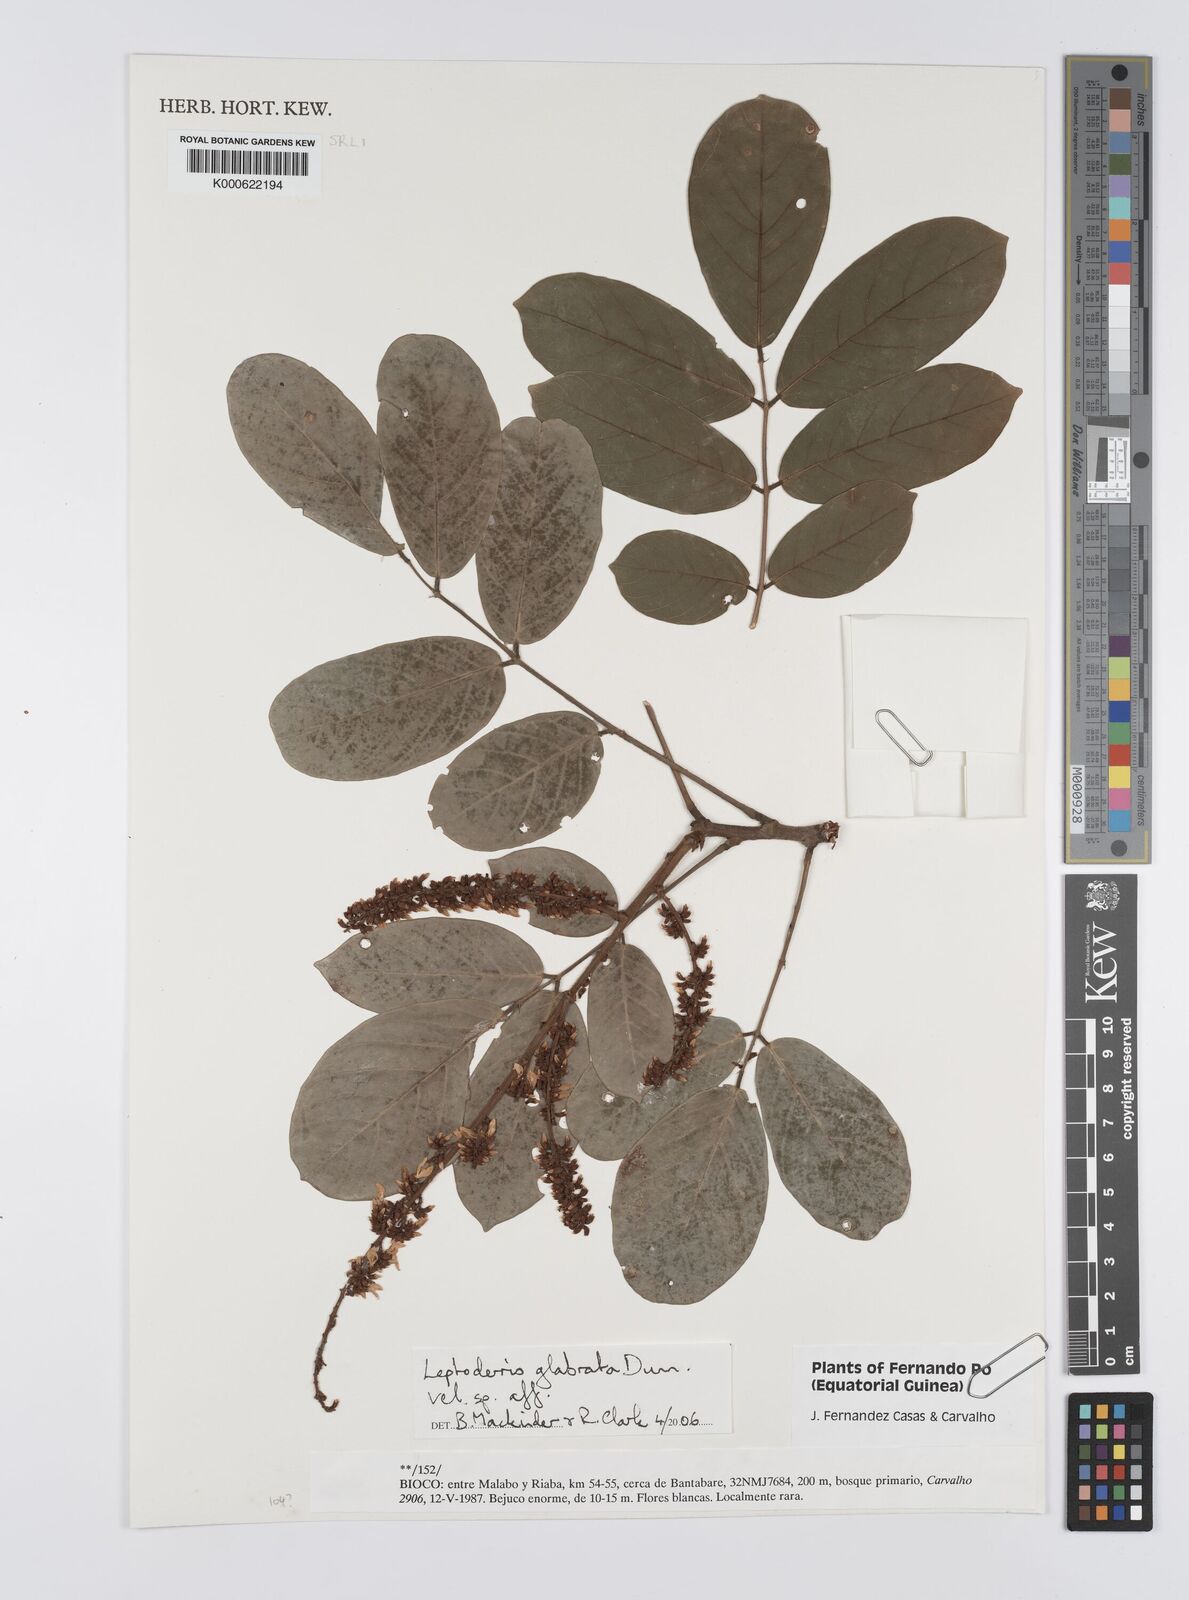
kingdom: Plantae
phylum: Tracheophyta
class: Magnoliopsida
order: Fabales
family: Fabaceae
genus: Leptoderris
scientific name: Leptoderris glabrata
